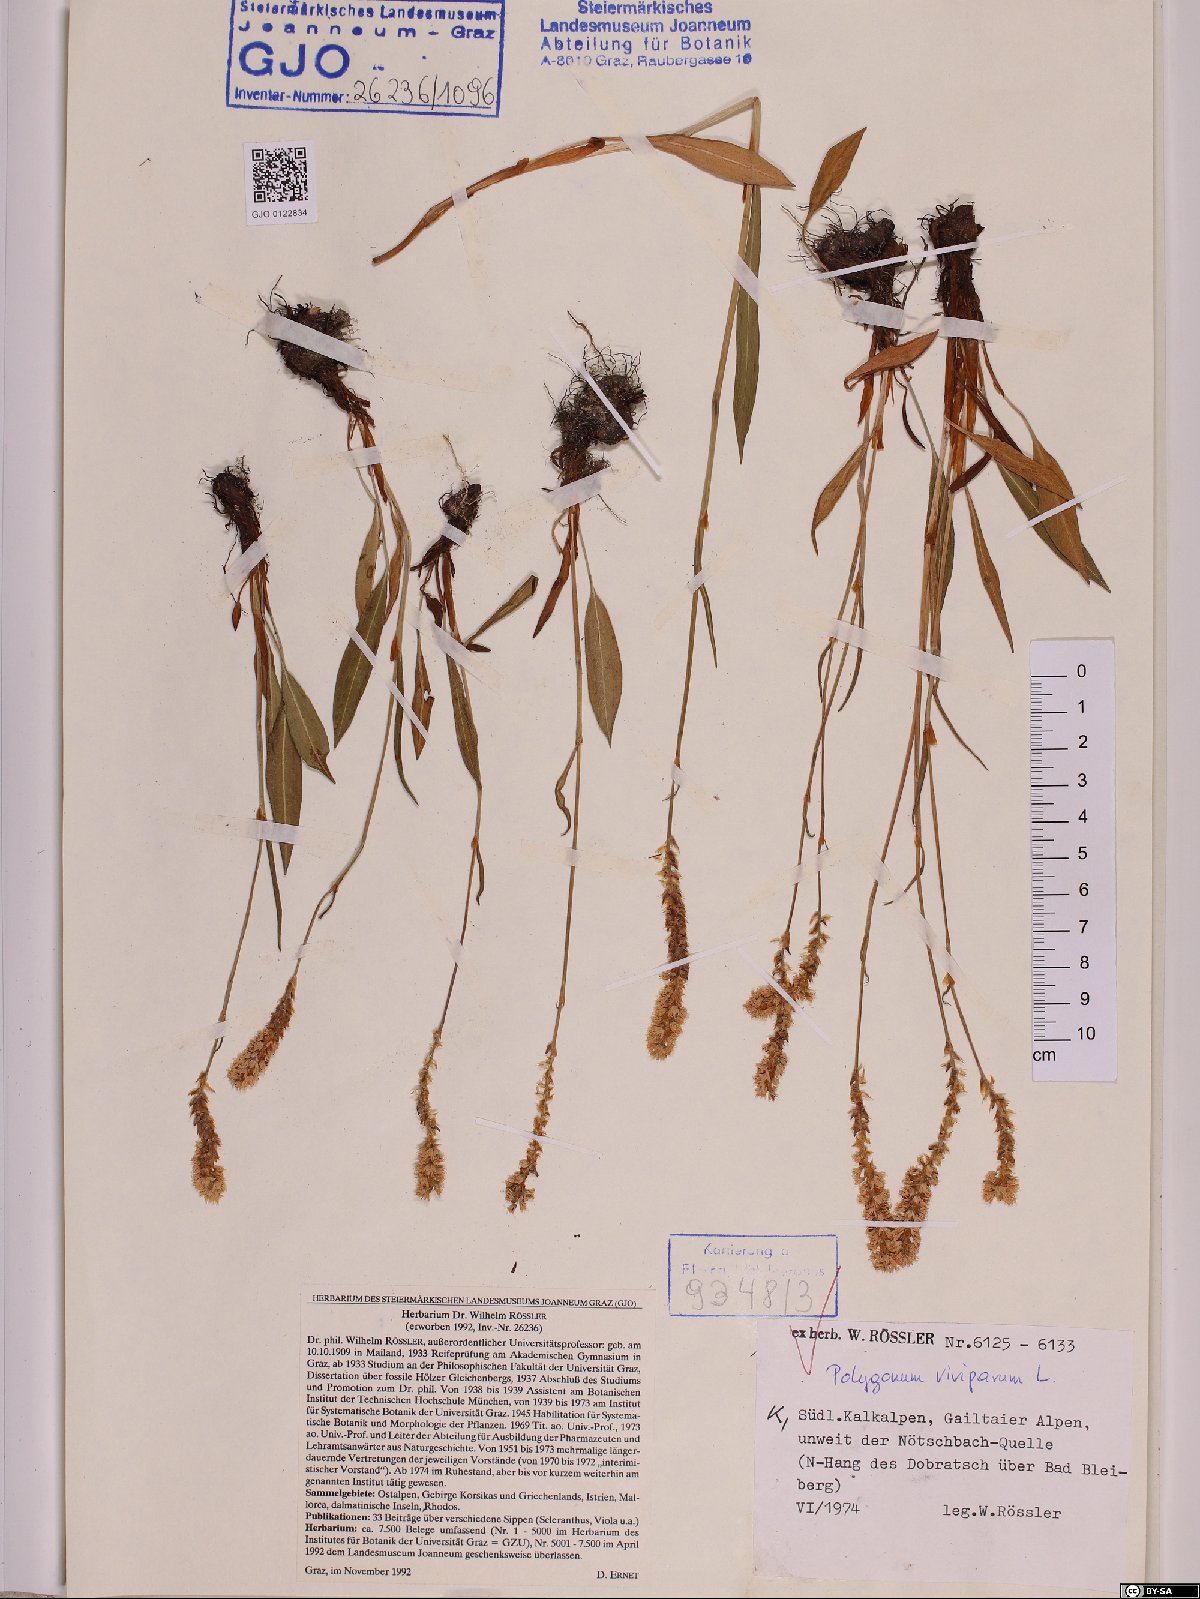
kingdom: Plantae
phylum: Tracheophyta
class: Magnoliopsida
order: Caryophyllales
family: Polygonaceae
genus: Bistorta
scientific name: Bistorta vivipara
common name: Alpine bistort
